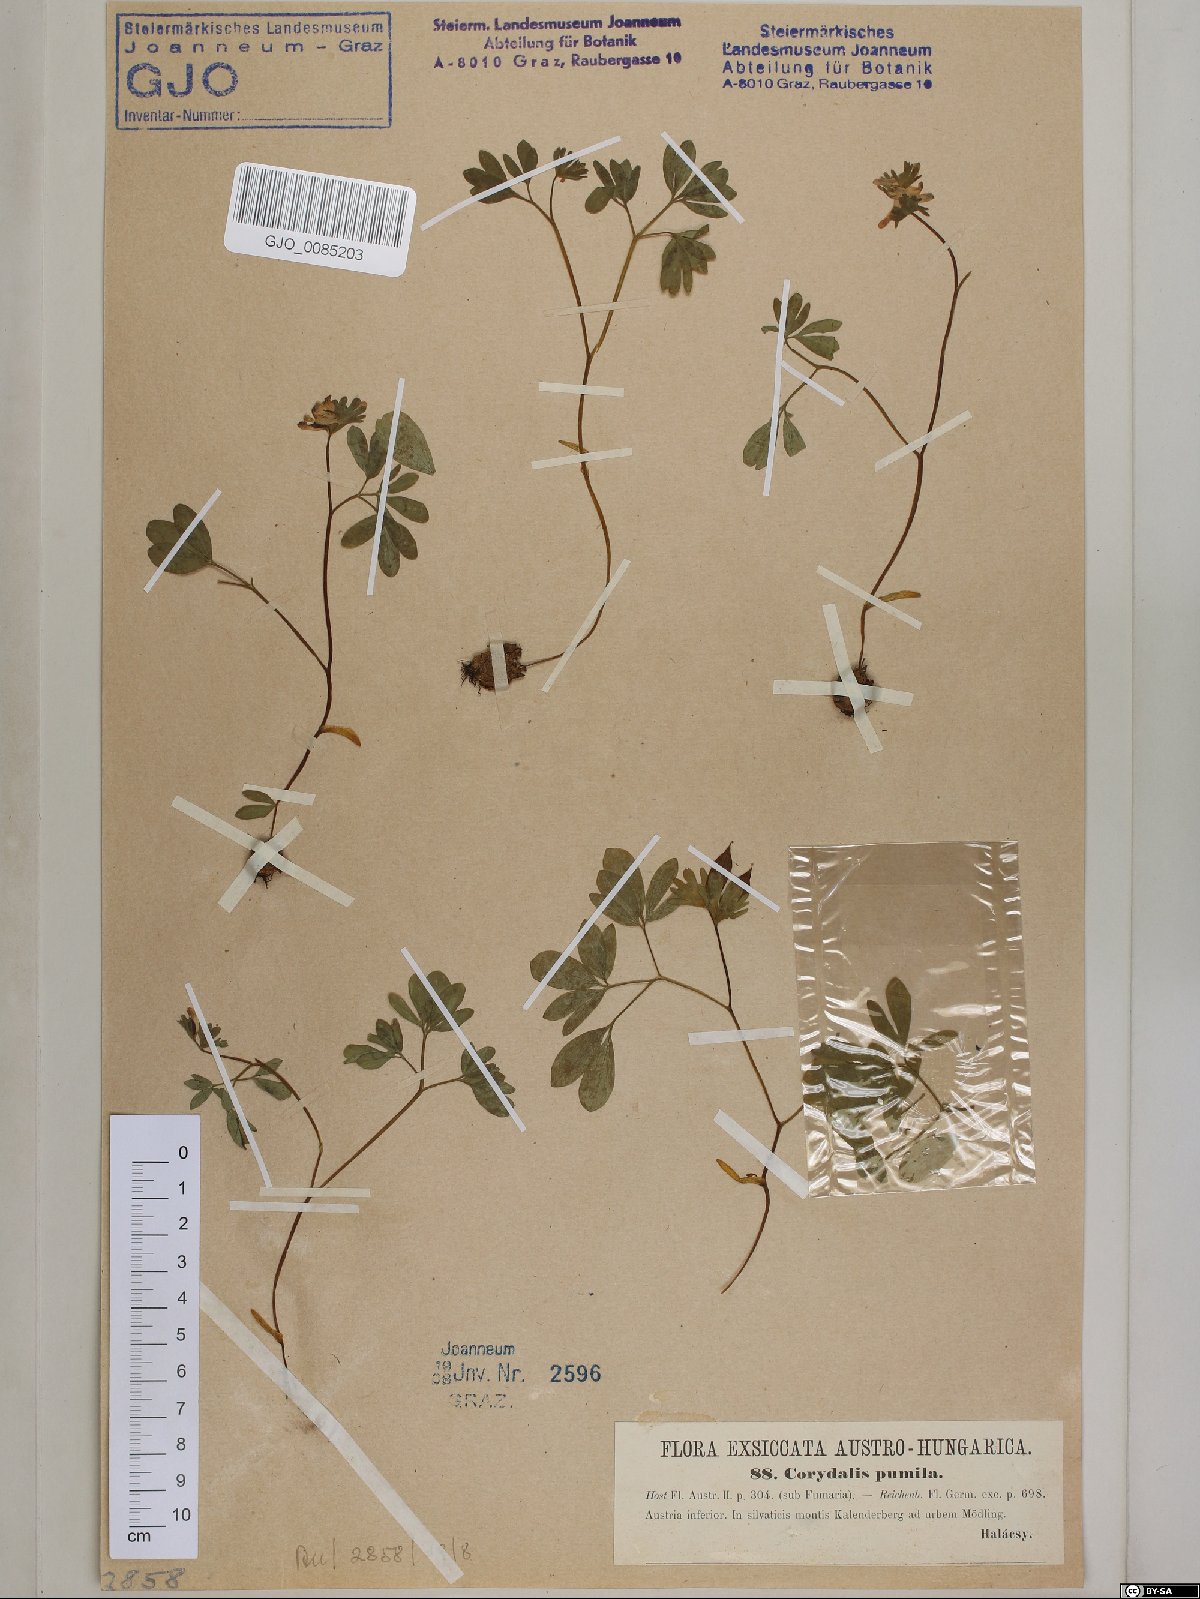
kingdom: Plantae
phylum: Tracheophyta
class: Magnoliopsida
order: Ranunculales
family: Papaveraceae
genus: Corydalis
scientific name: Corydalis pumila
